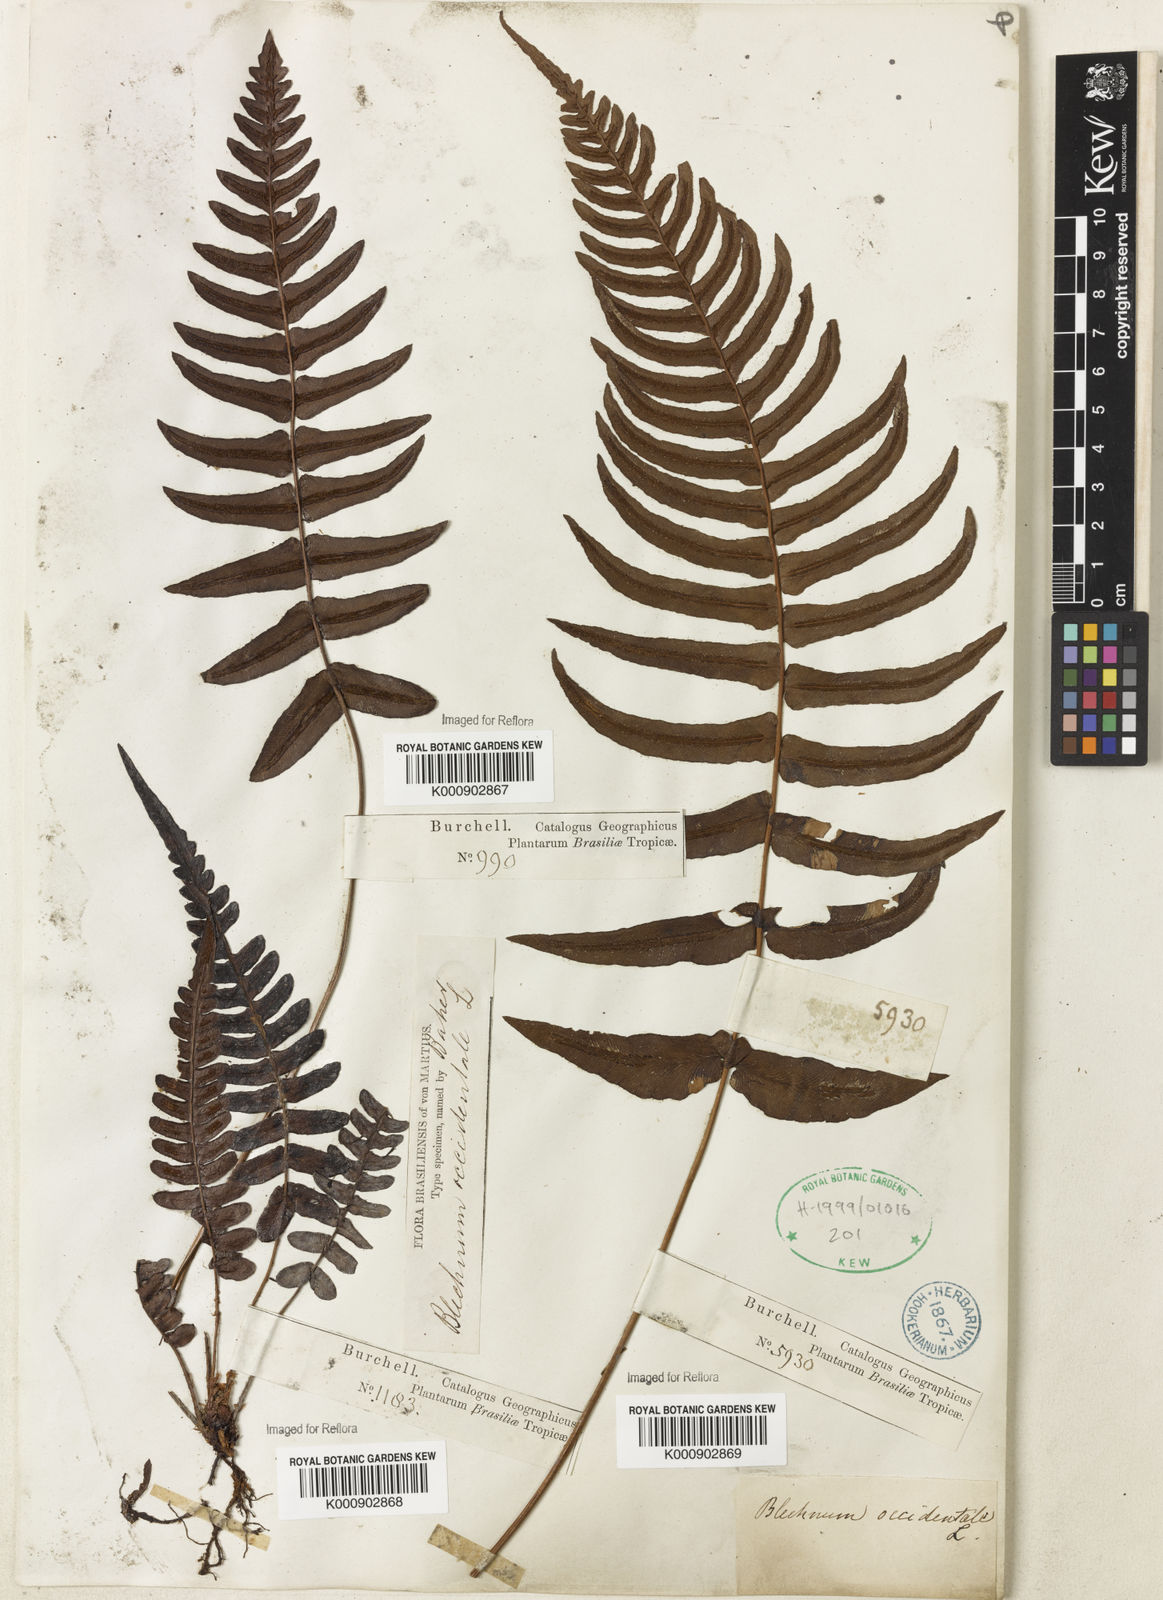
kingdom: Plantae
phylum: Tracheophyta
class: Polypodiopsida
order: Polypodiales
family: Blechnaceae
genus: Blechnum
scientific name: Blechnum occidentale
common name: Hammock fern
